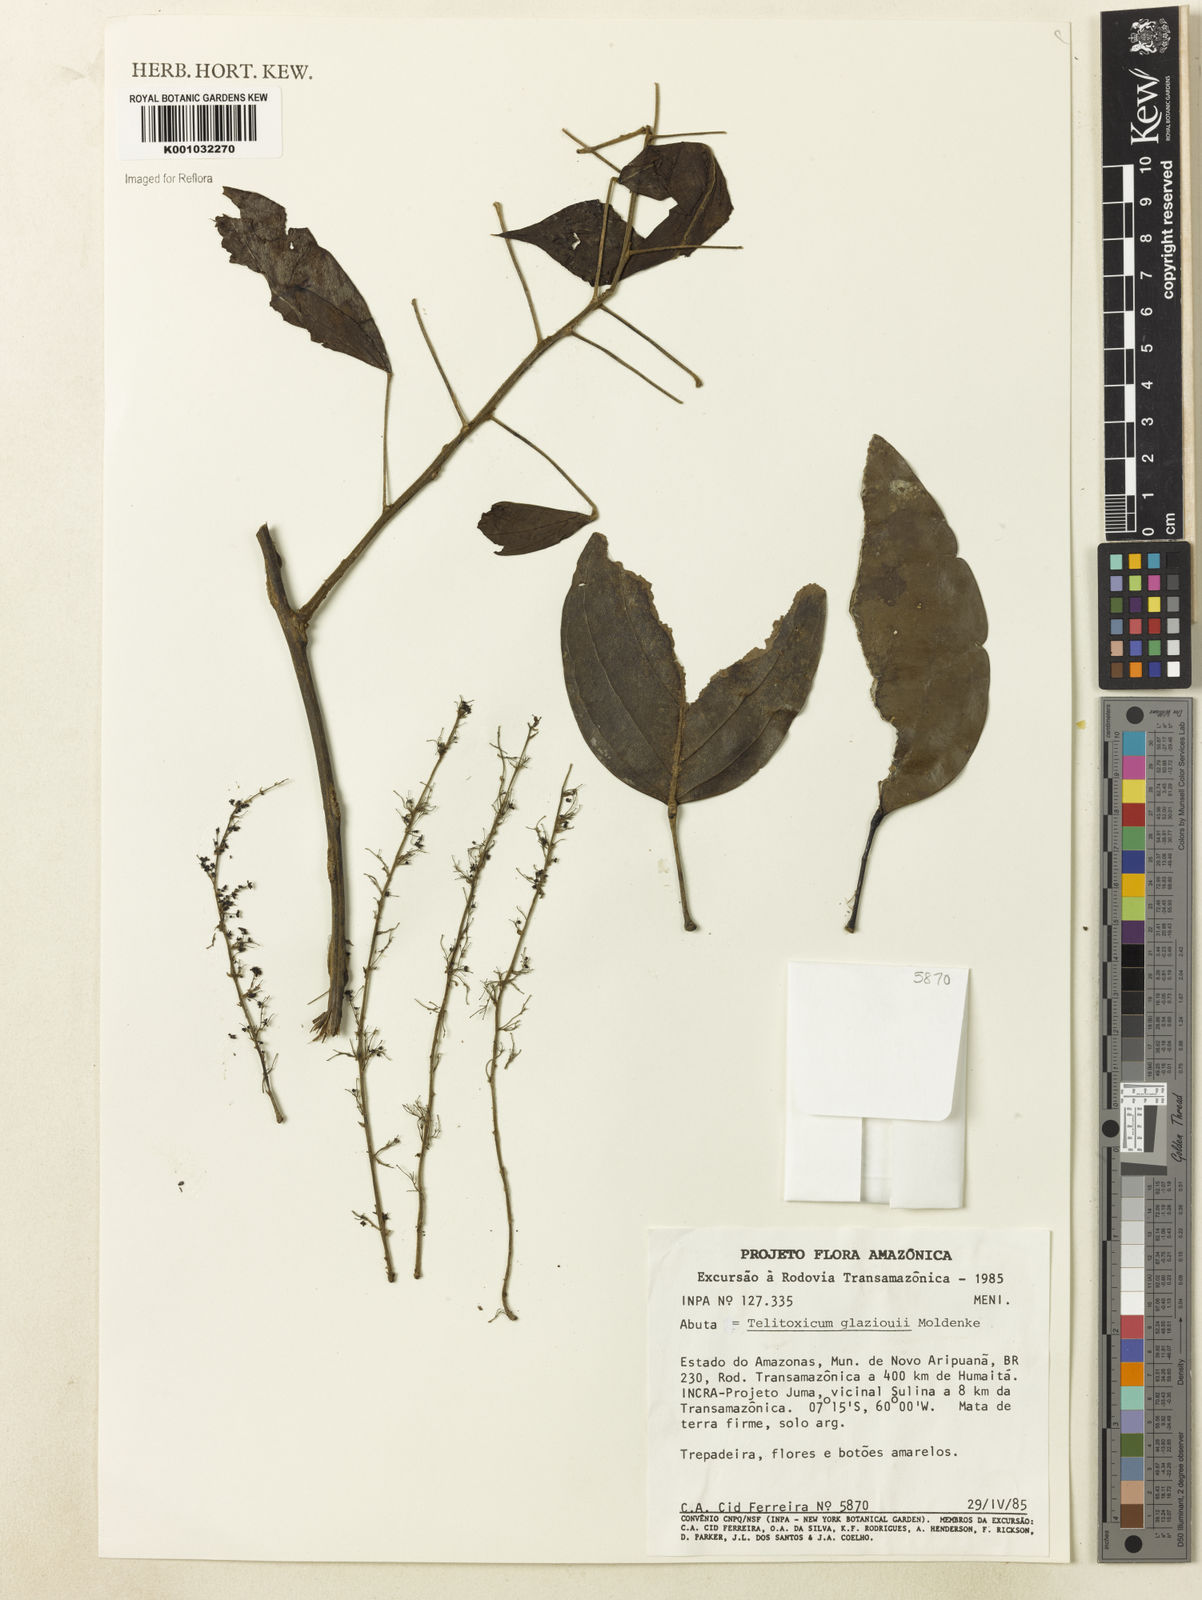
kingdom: Plantae
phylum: Tracheophyta
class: Magnoliopsida
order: Ranunculales
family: Menispermaceae
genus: Telitoxicum
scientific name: Telitoxicum glaziovii
